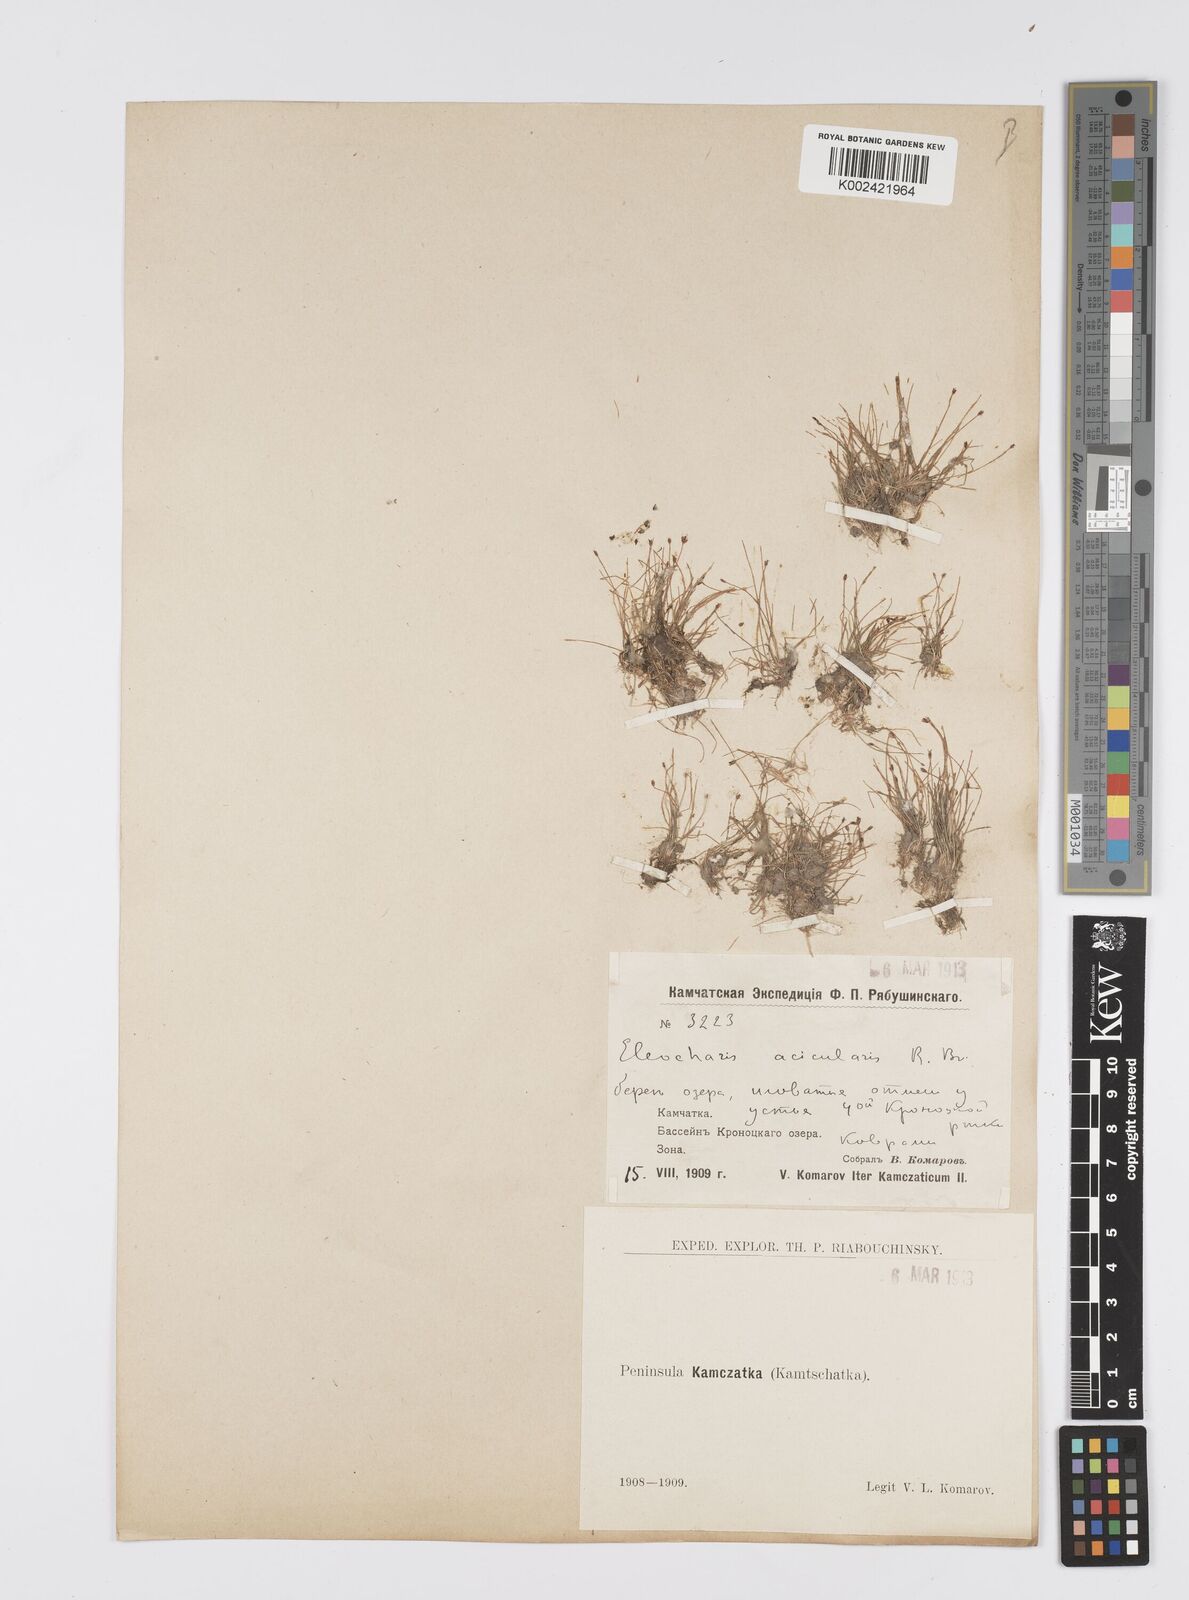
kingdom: Plantae
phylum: Tracheophyta
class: Liliopsida
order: Poales
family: Cyperaceae
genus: Eleocharis
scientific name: Eleocharis acicularis
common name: Needle spike-rush
